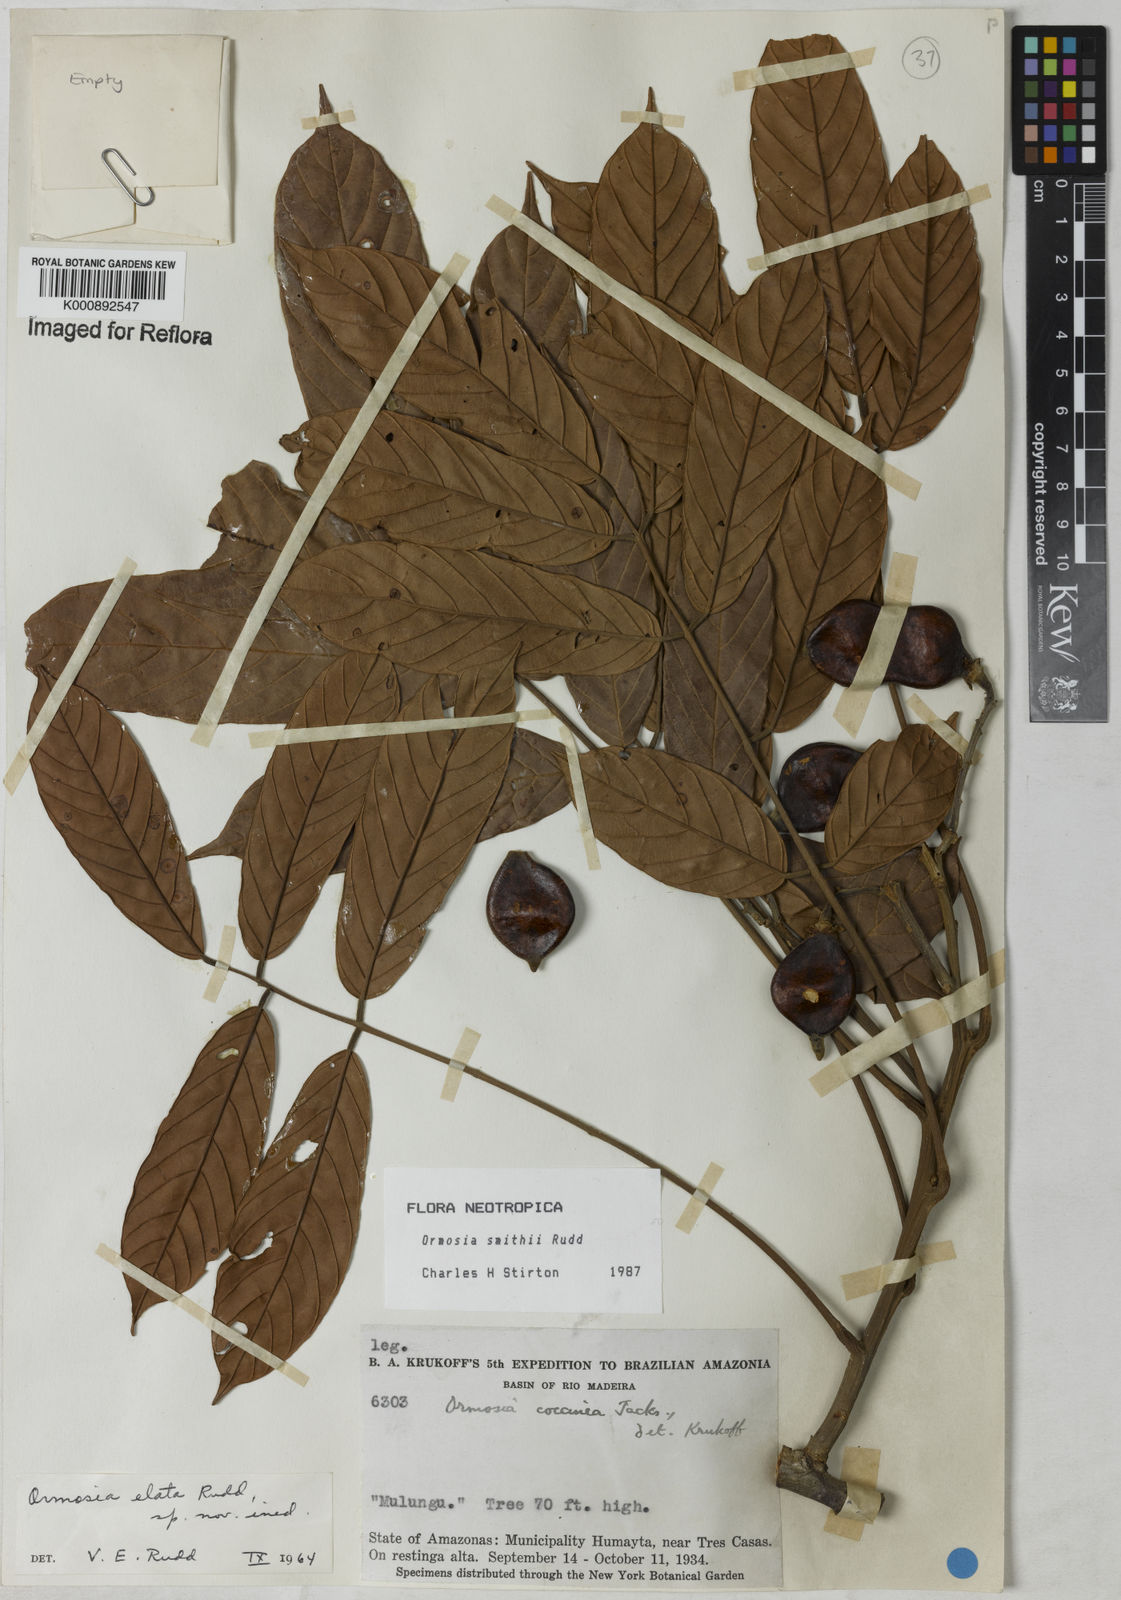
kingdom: Plantae
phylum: Tracheophyta
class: Magnoliopsida
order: Fabales
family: Fabaceae
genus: Ormosia
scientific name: Ormosia smithii
